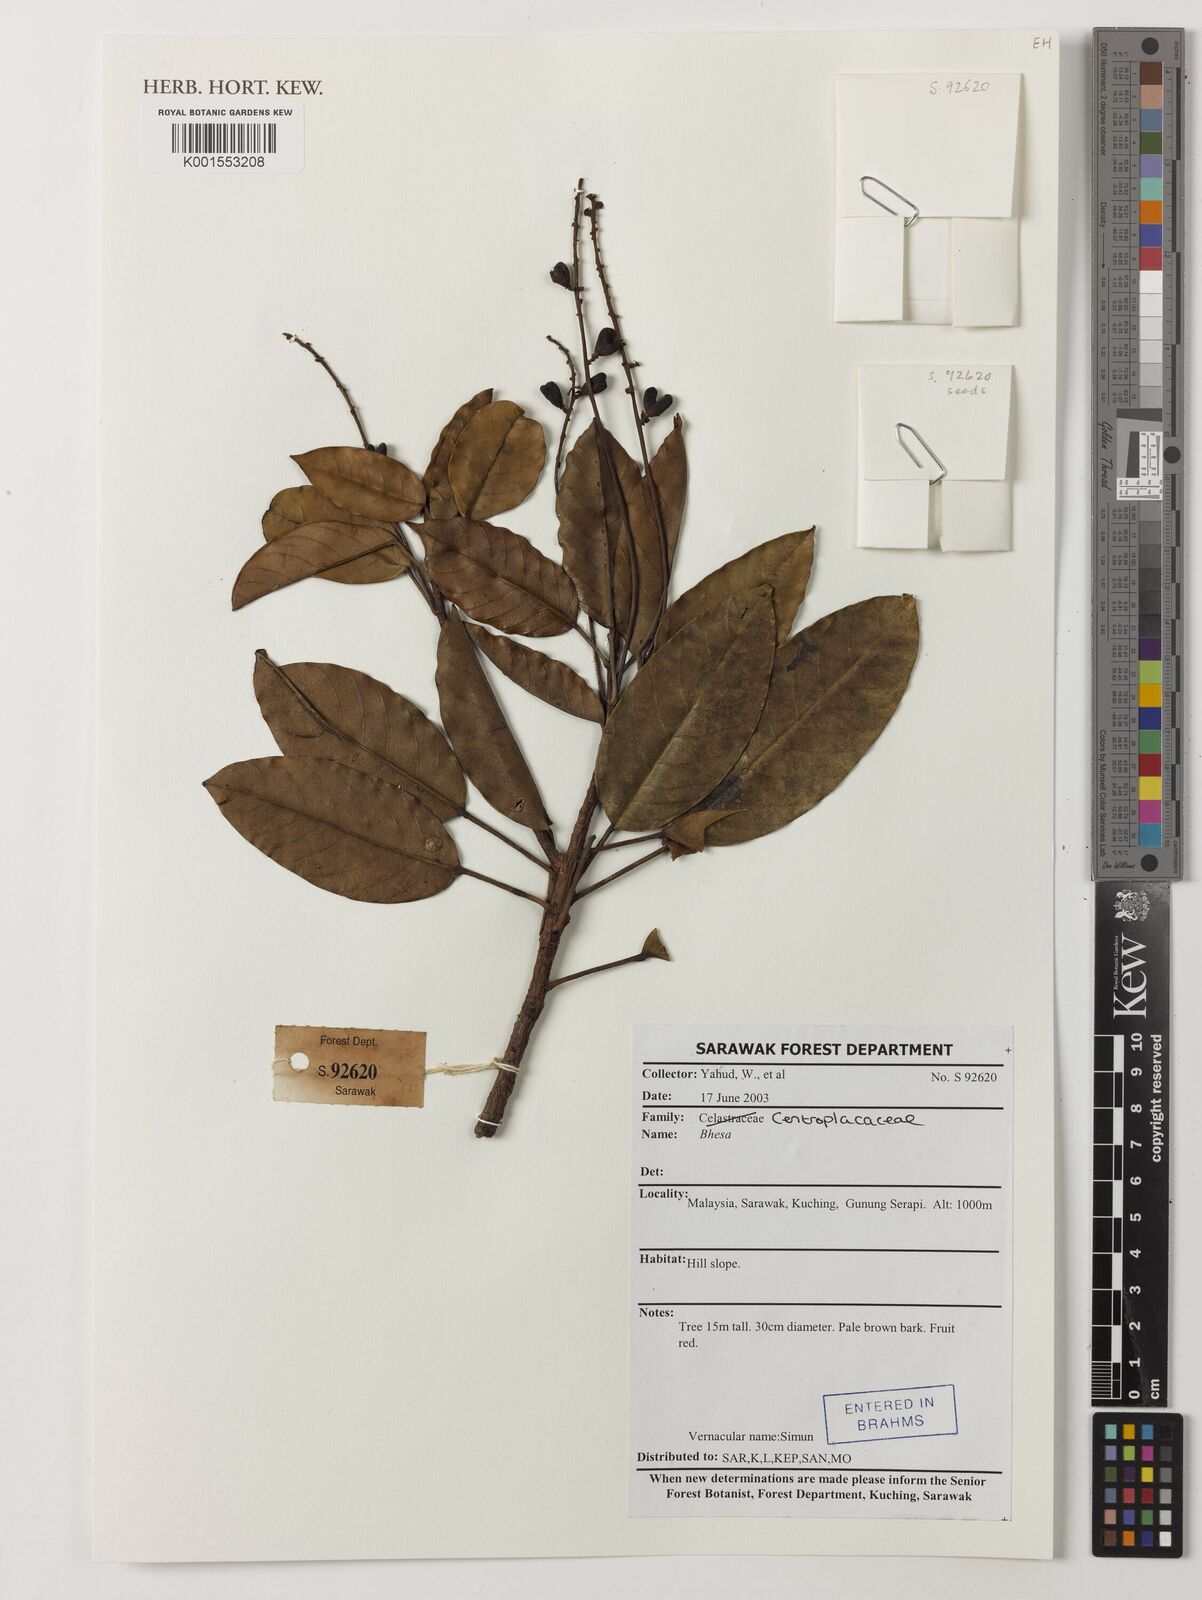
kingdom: Plantae
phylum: Tracheophyta
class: Magnoliopsida
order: Malpighiales
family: Centroplacaceae
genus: Bhesa
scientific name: Bhesa
